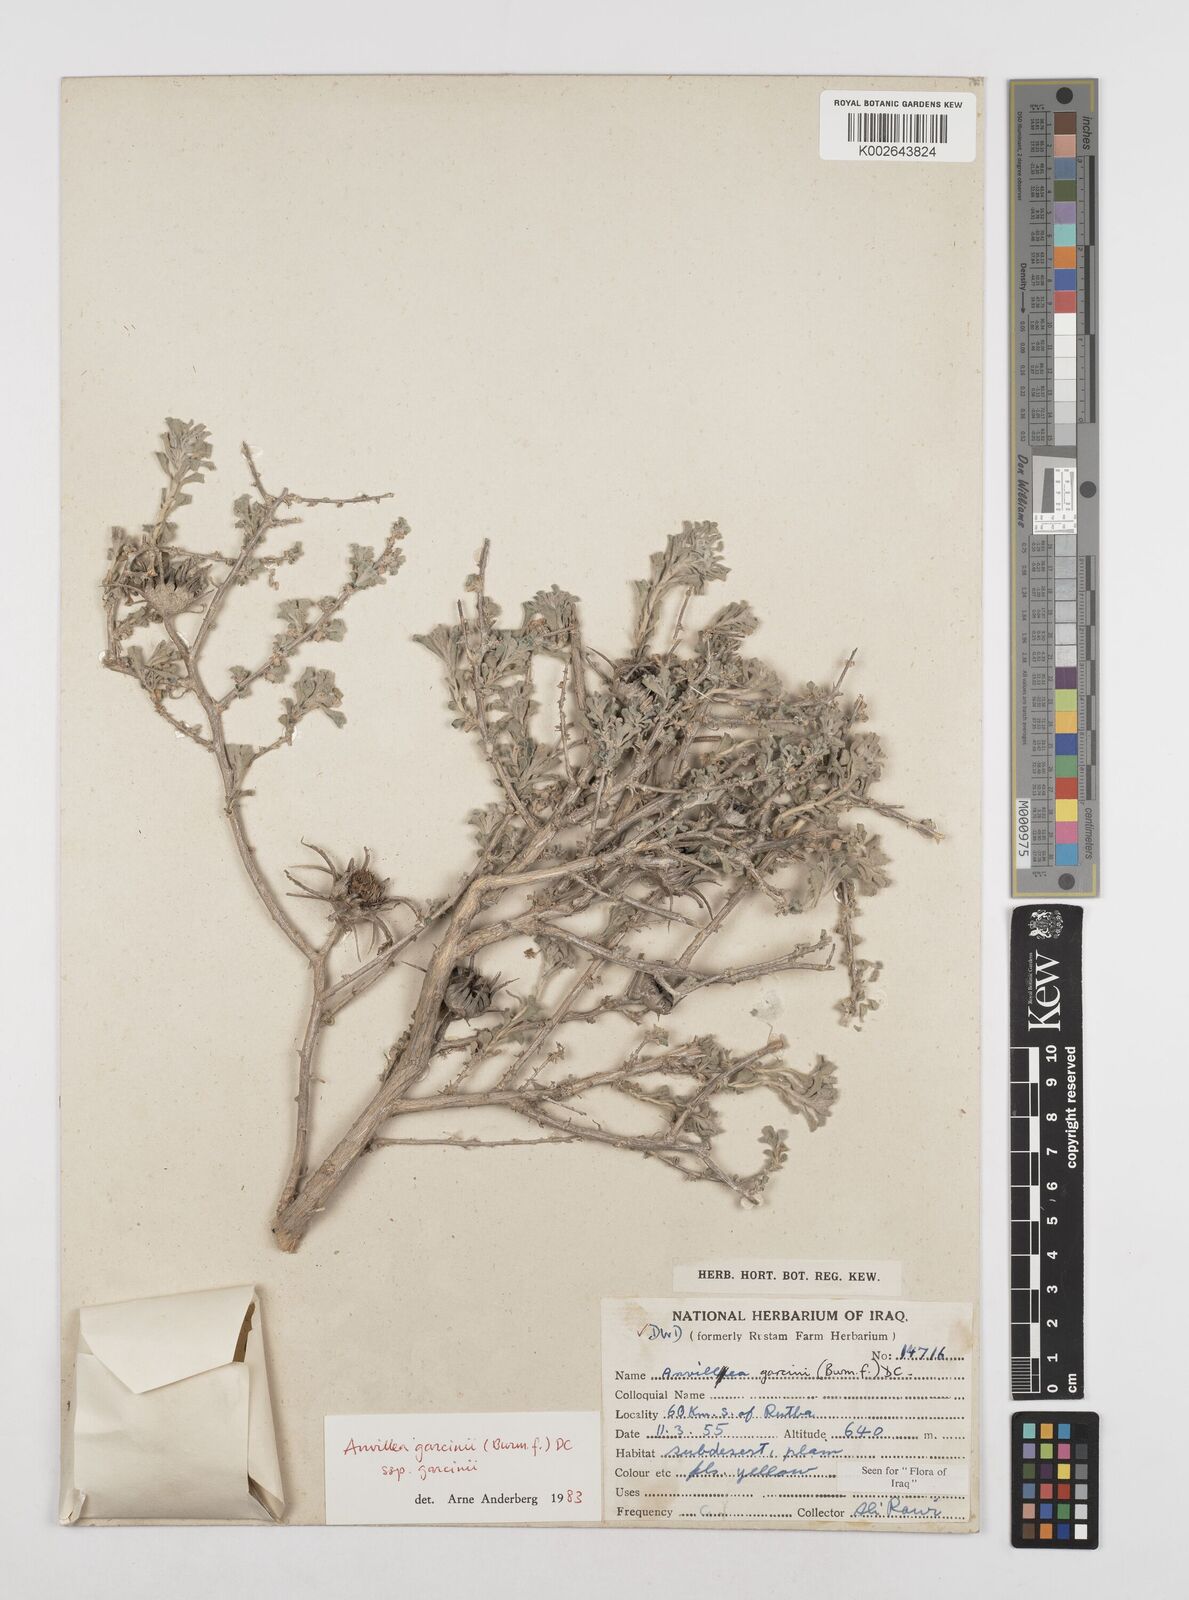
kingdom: Plantae
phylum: Tracheophyta
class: Magnoliopsida
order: Asterales
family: Asteraceae
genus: Anvillea
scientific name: Anvillea
